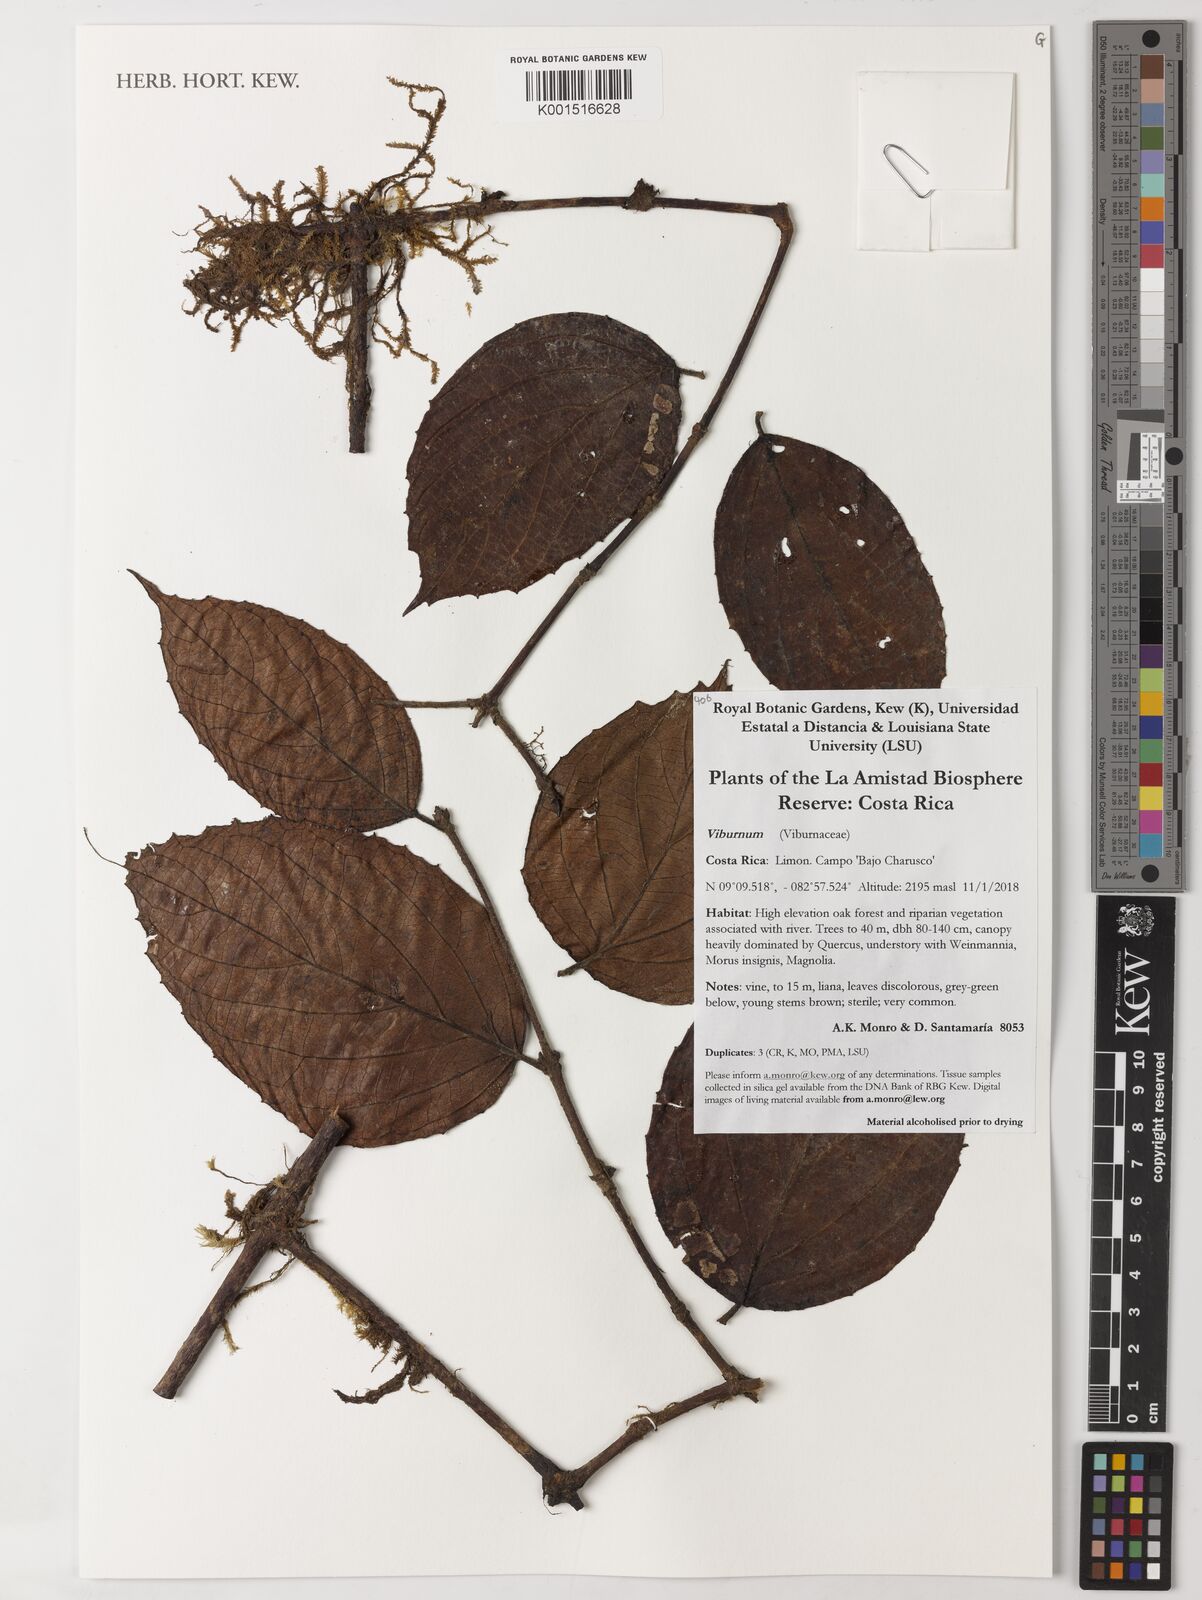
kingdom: Plantae
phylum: Tracheophyta
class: Magnoliopsida
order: Dipsacales
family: Viburnaceae
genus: Viburnum
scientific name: Viburnum
